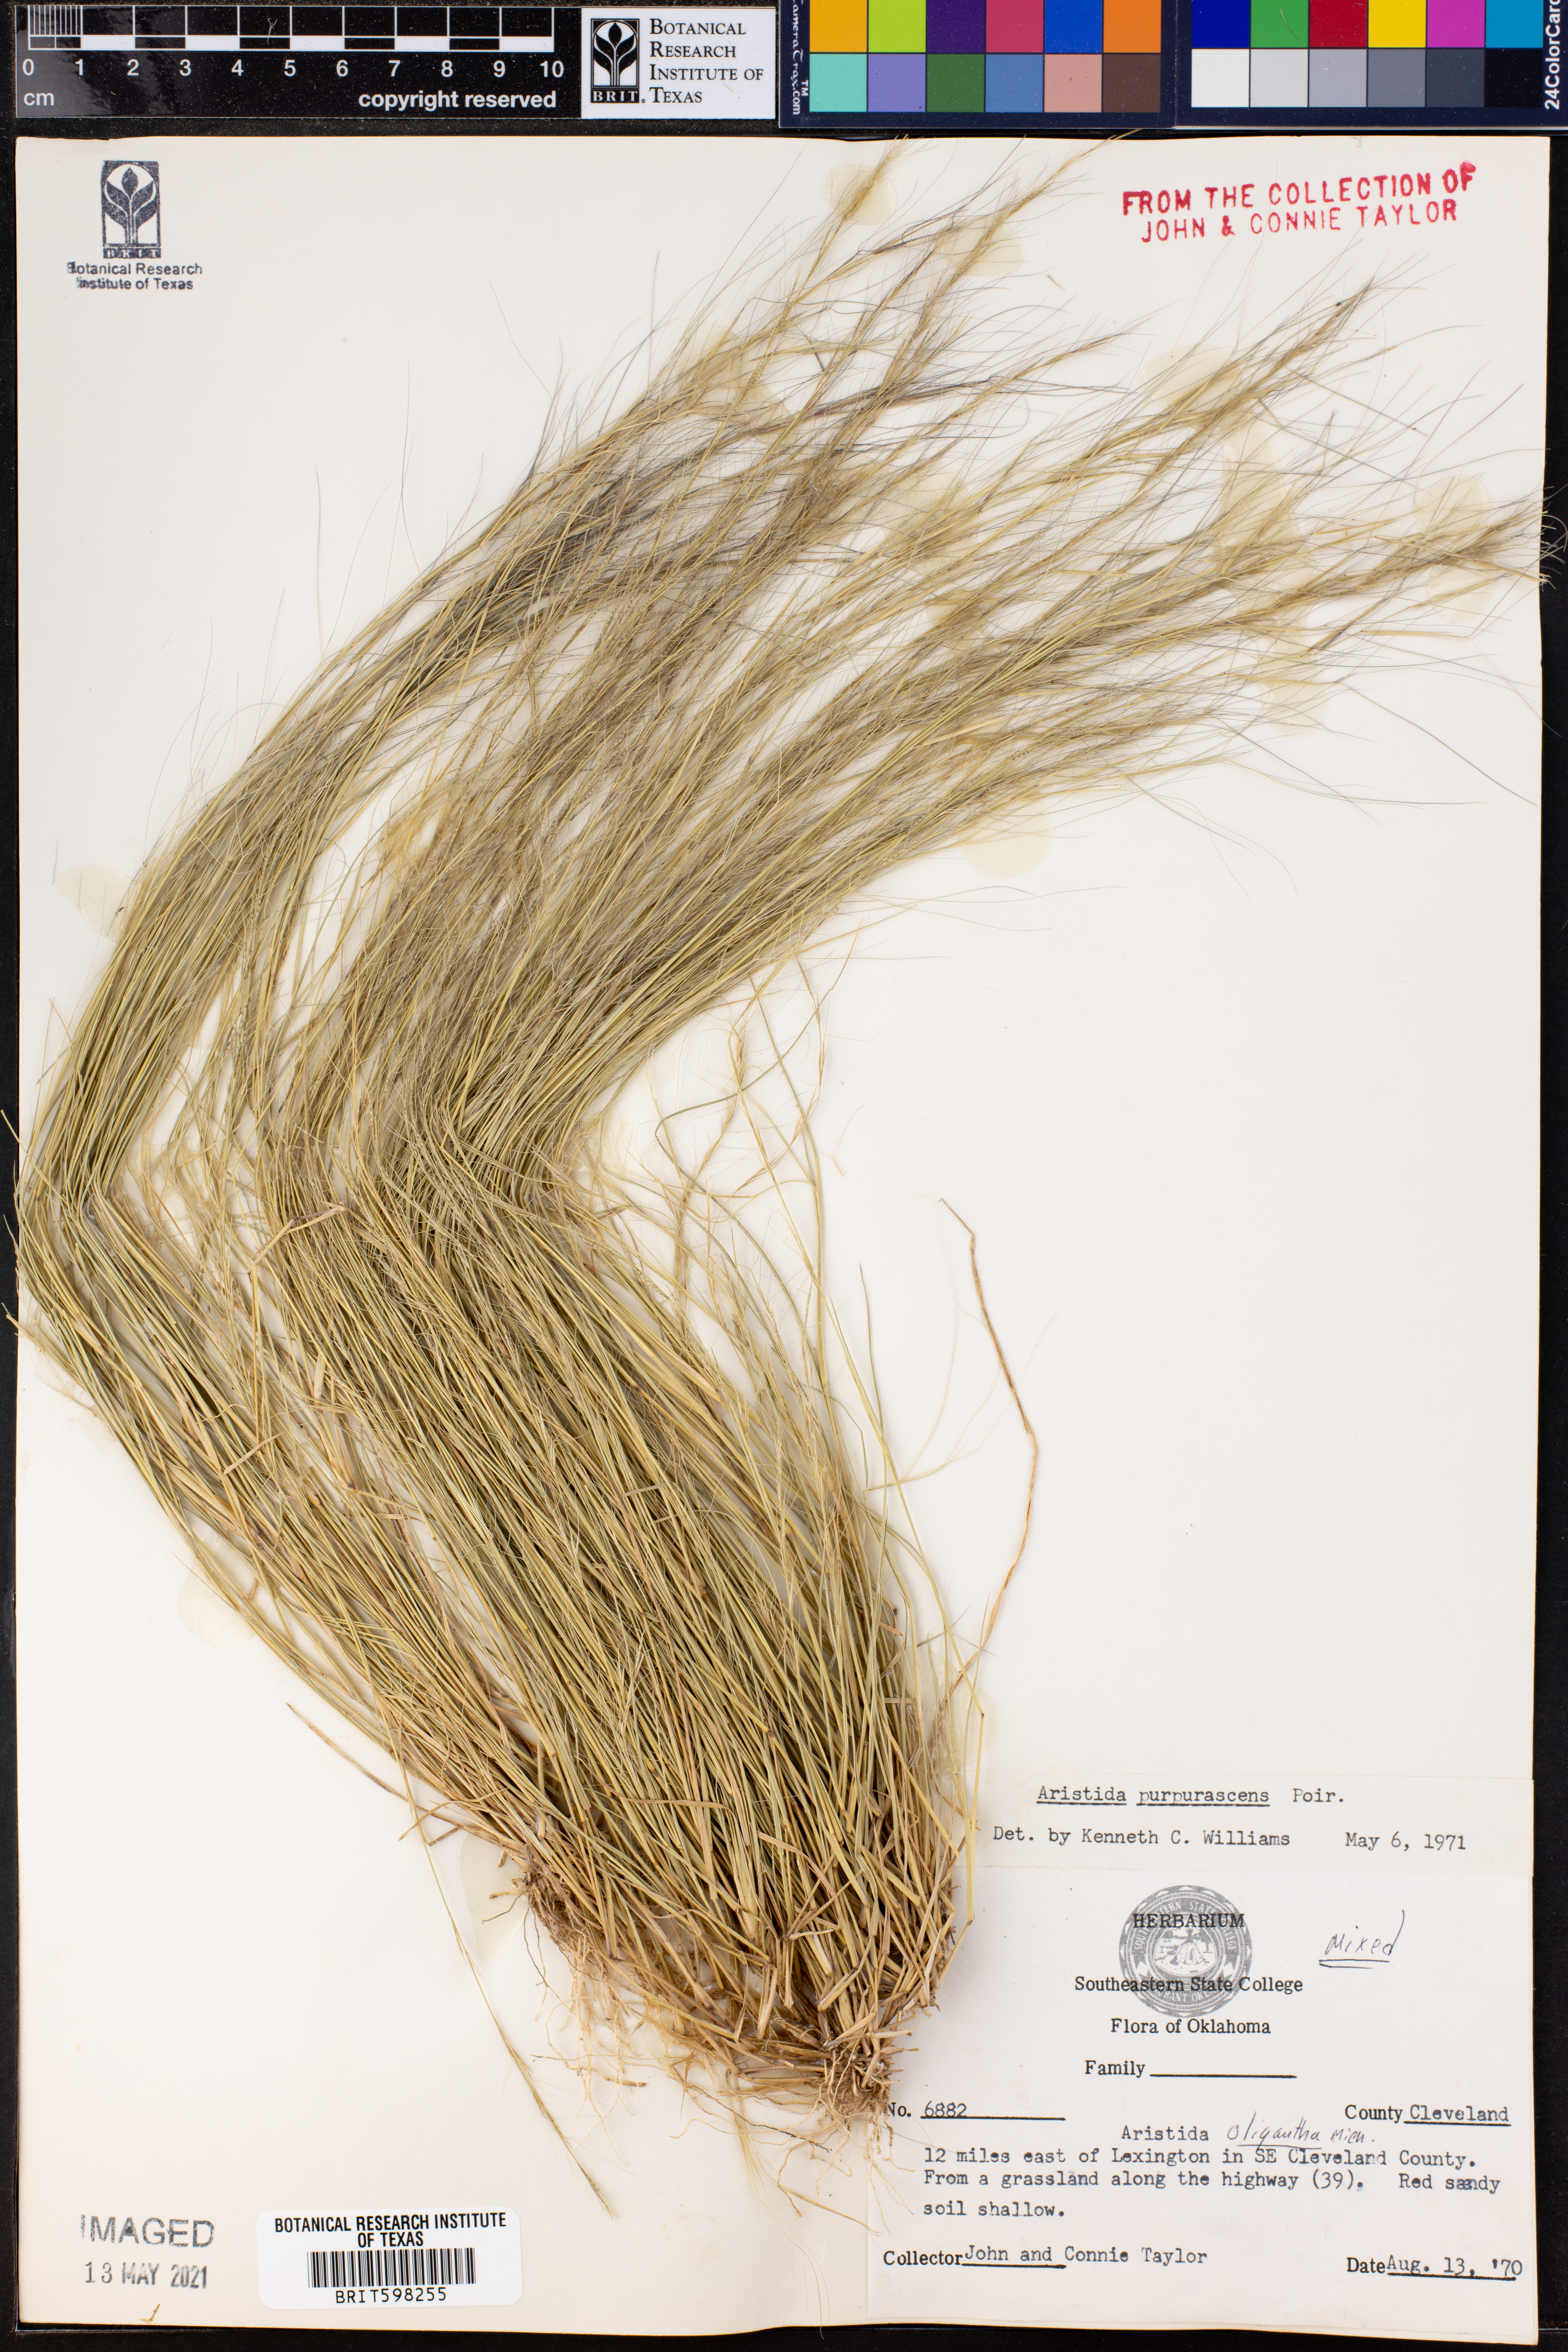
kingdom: Plantae
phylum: Tracheophyta
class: Liliopsida
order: Poales
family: Poaceae
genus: Aristida
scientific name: Aristida purpurascens
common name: Arrow-feather
